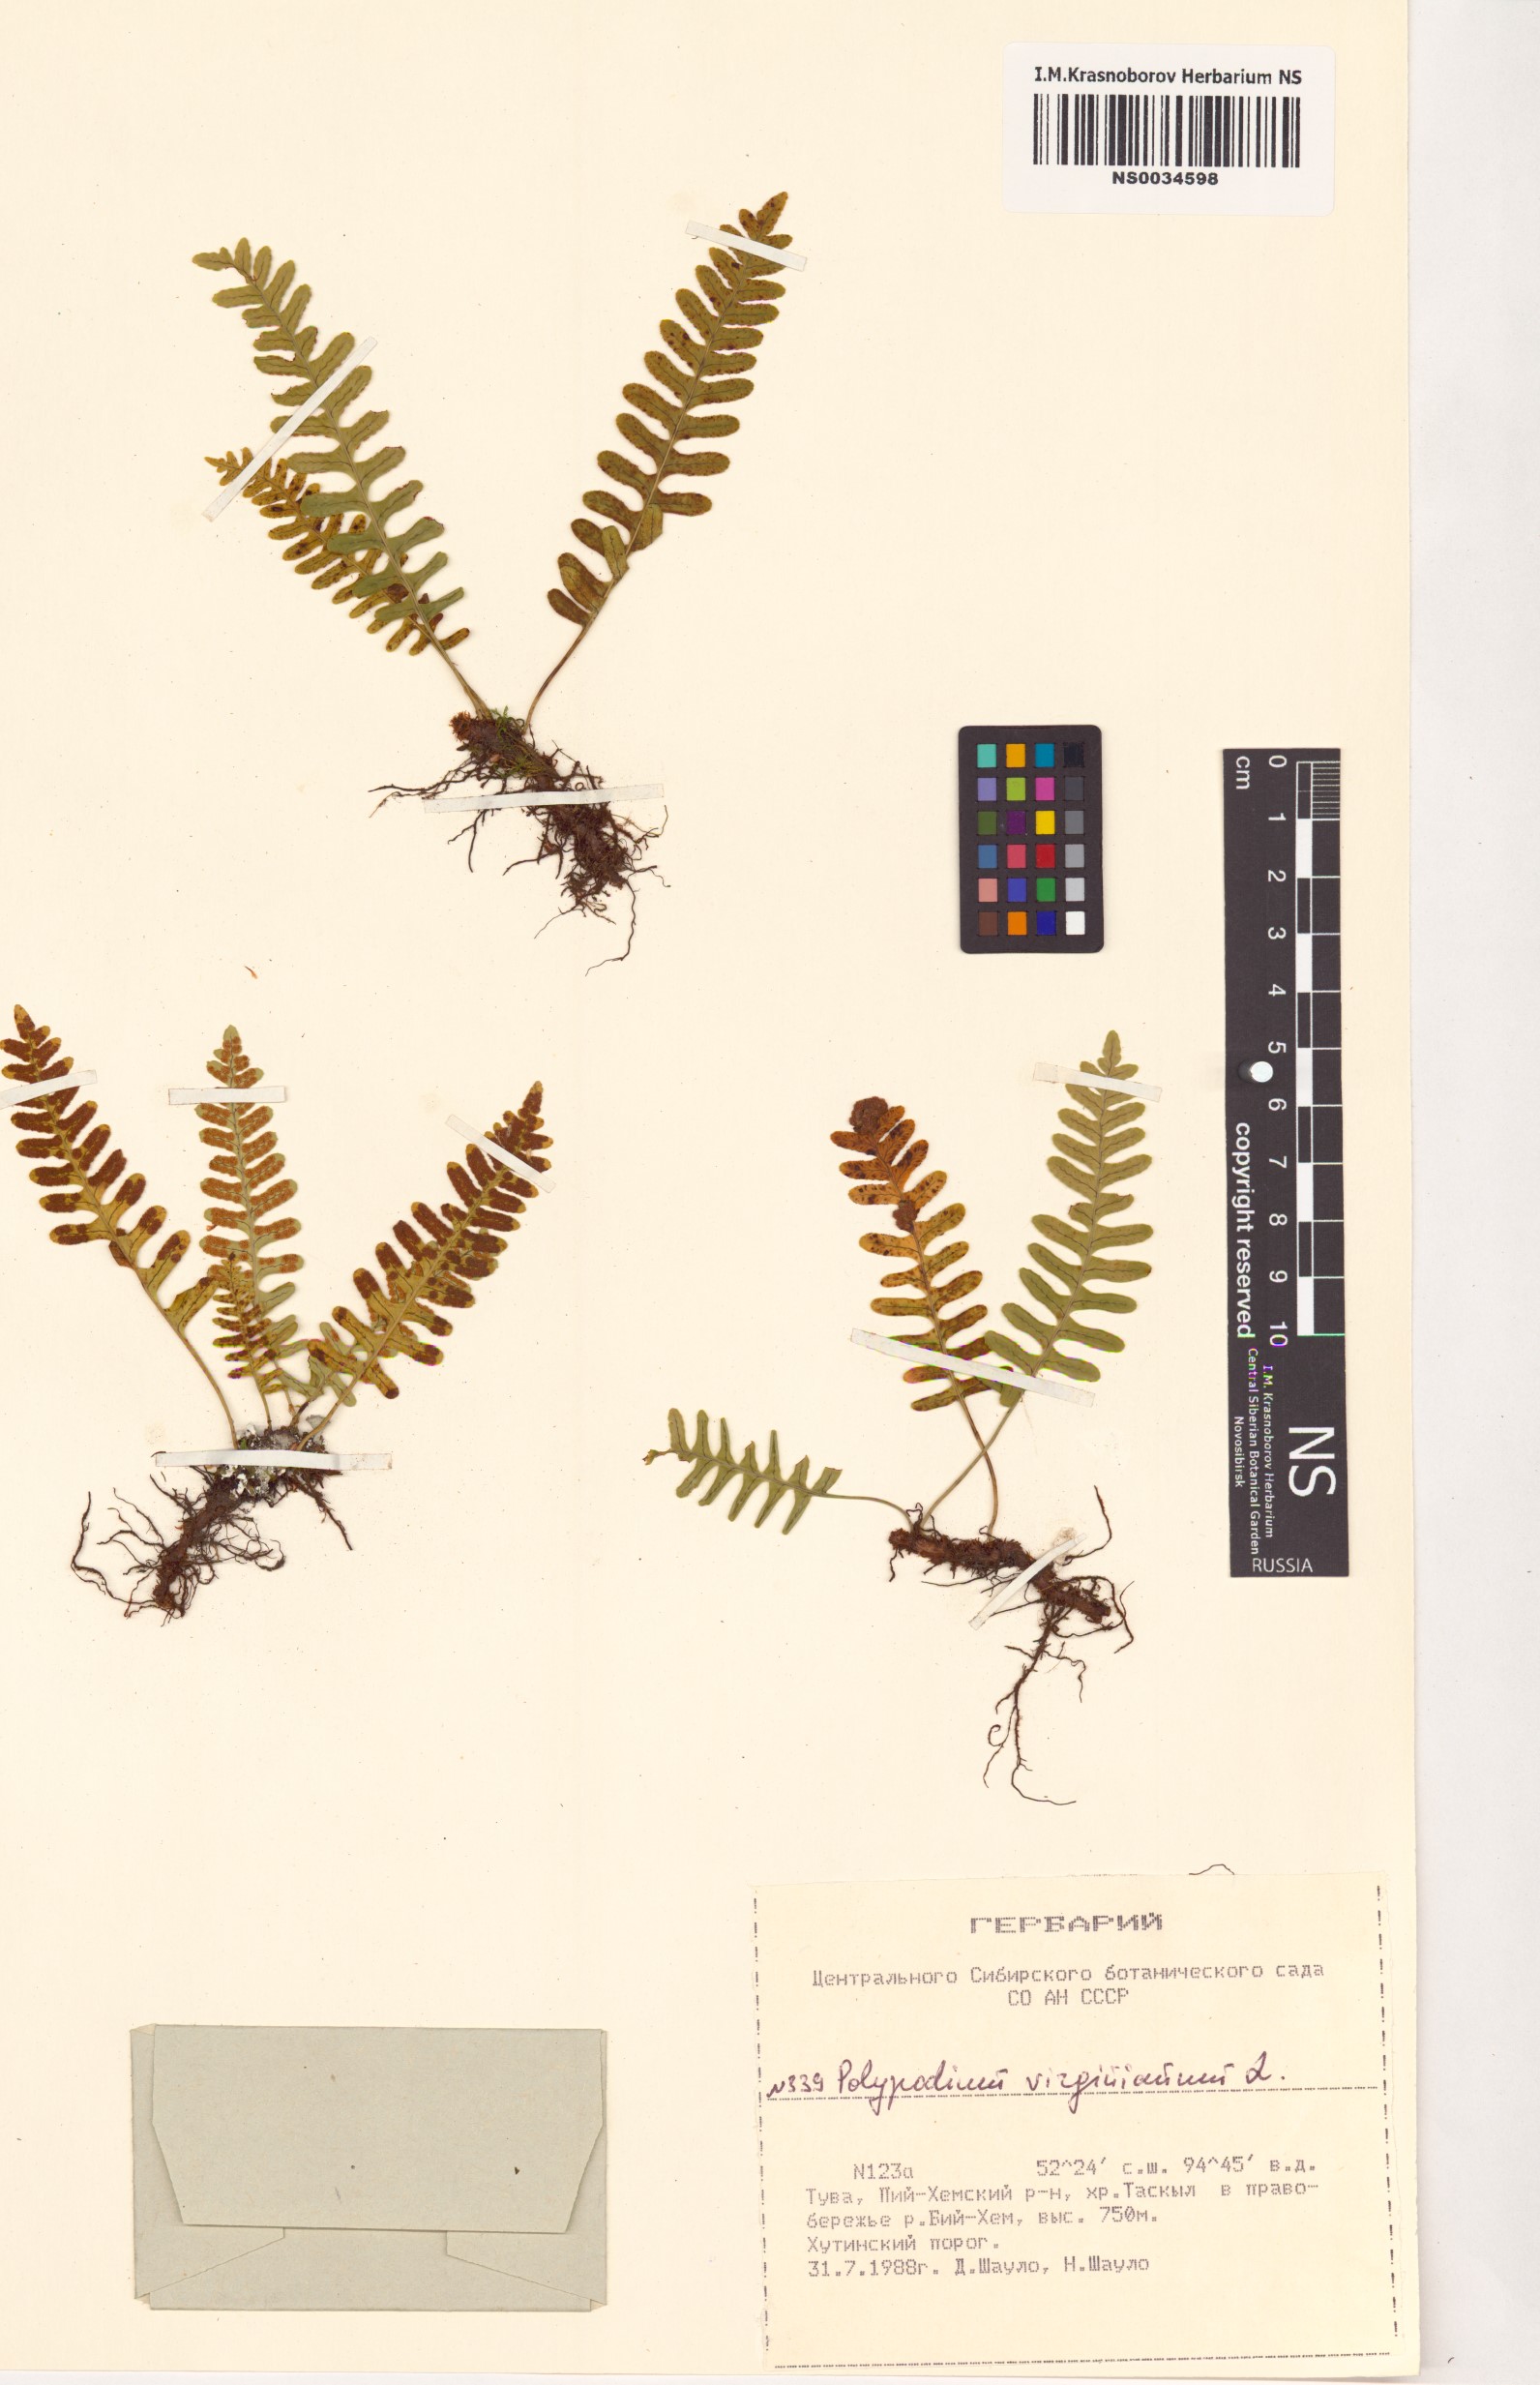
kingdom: Plantae
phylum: Tracheophyta
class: Polypodiopsida
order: Polypodiales
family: Polypodiaceae
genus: Polypodium
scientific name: Polypodium virginianum
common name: American wall fern
